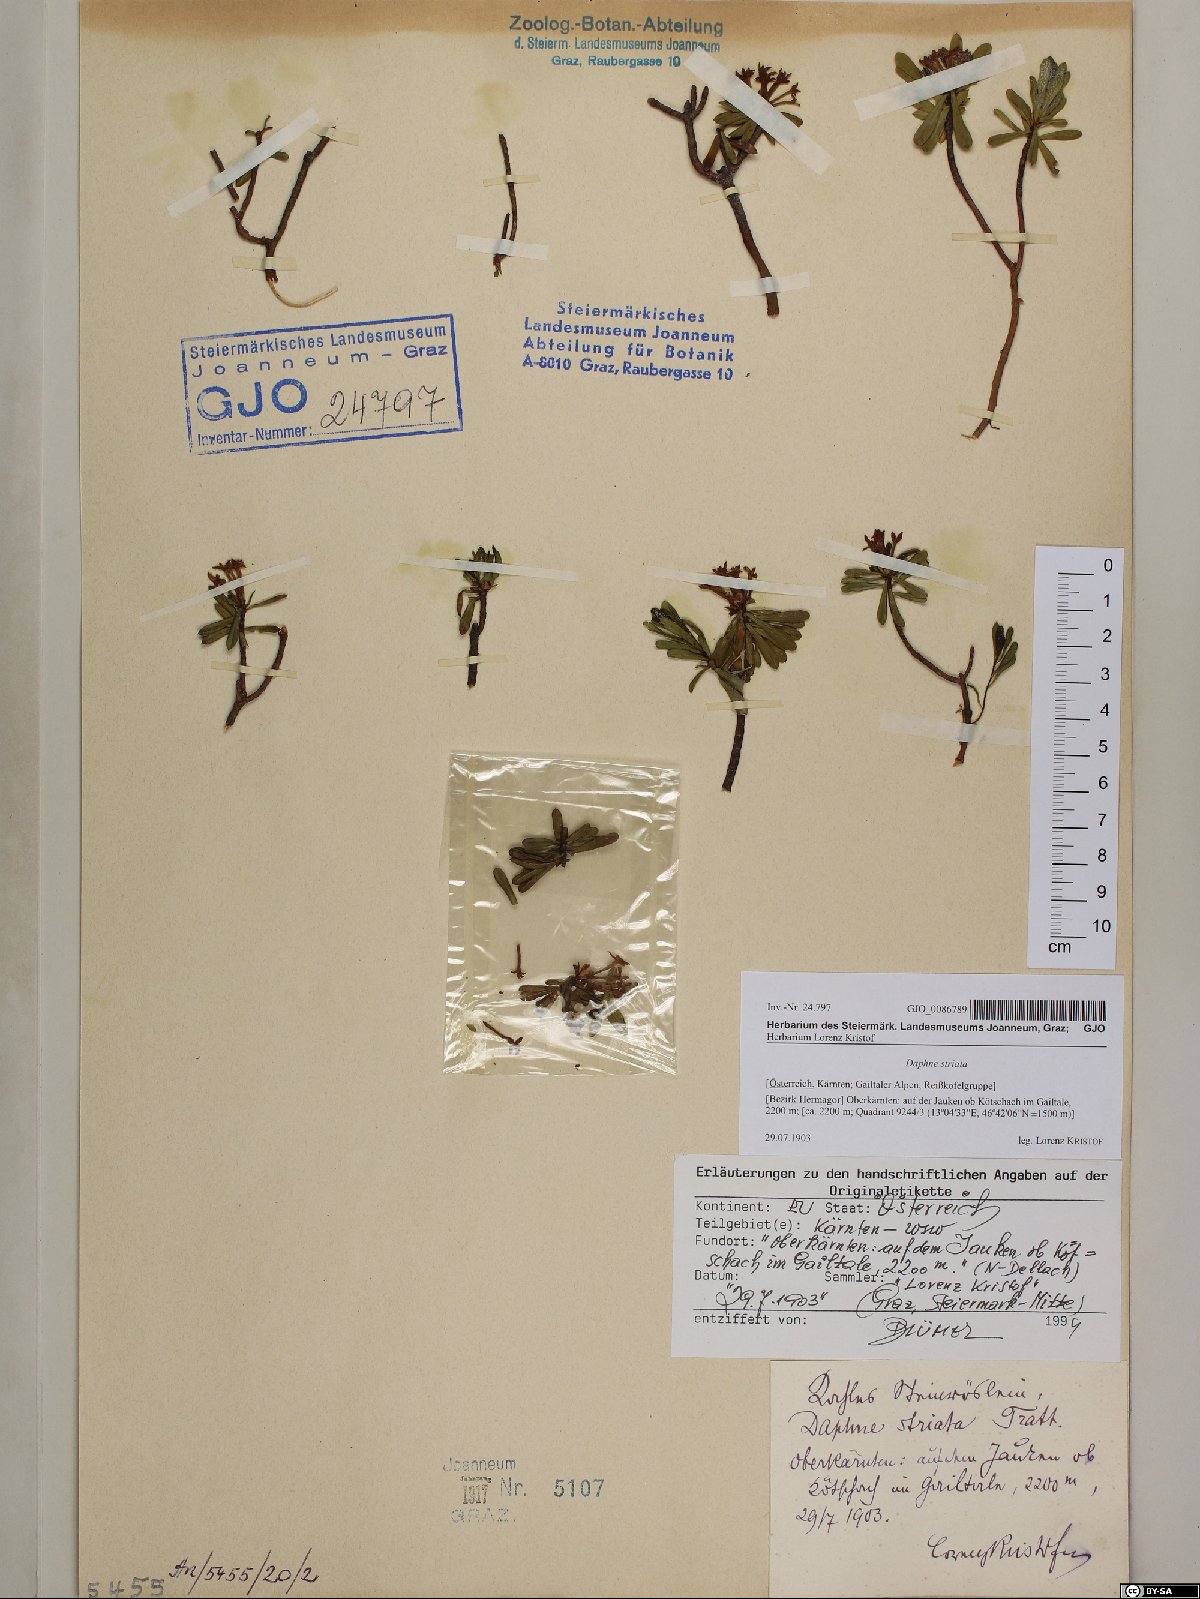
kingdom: Plantae
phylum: Tracheophyta
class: Magnoliopsida
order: Malvales
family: Thymelaeaceae
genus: Daphne
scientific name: Daphne striata
